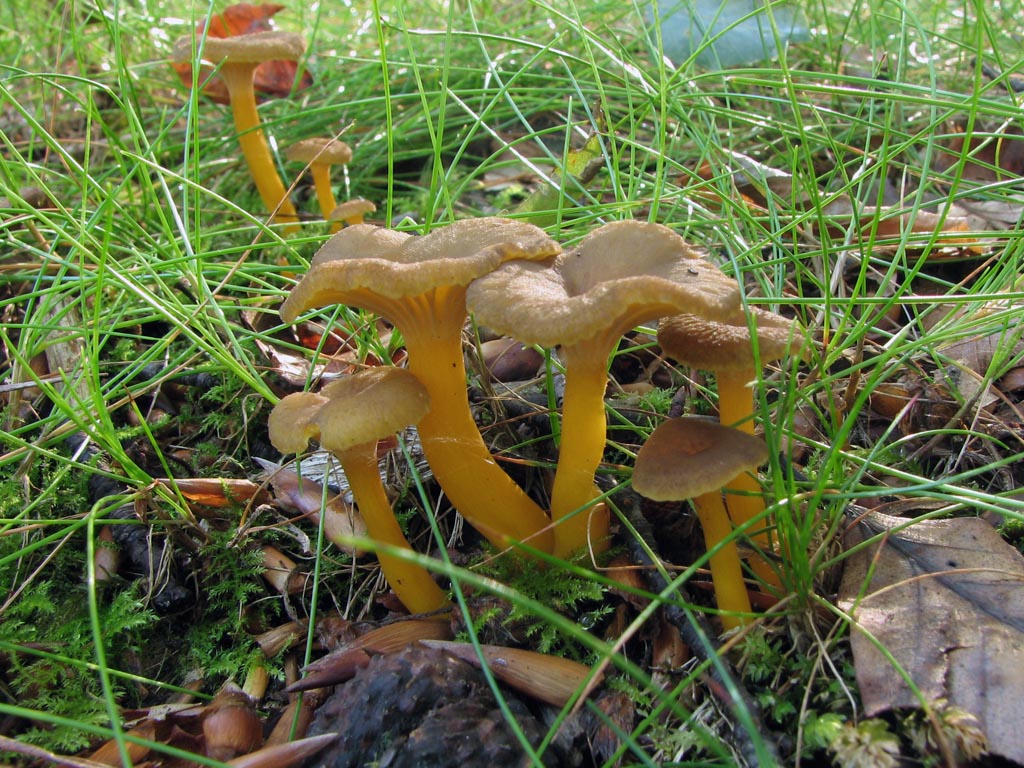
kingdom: Fungi
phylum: Basidiomycota
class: Agaricomycetes
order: Cantharellales
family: Hydnaceae
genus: Craterellus
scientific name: Craterellus tubaeformis
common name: tragt-kantarel
